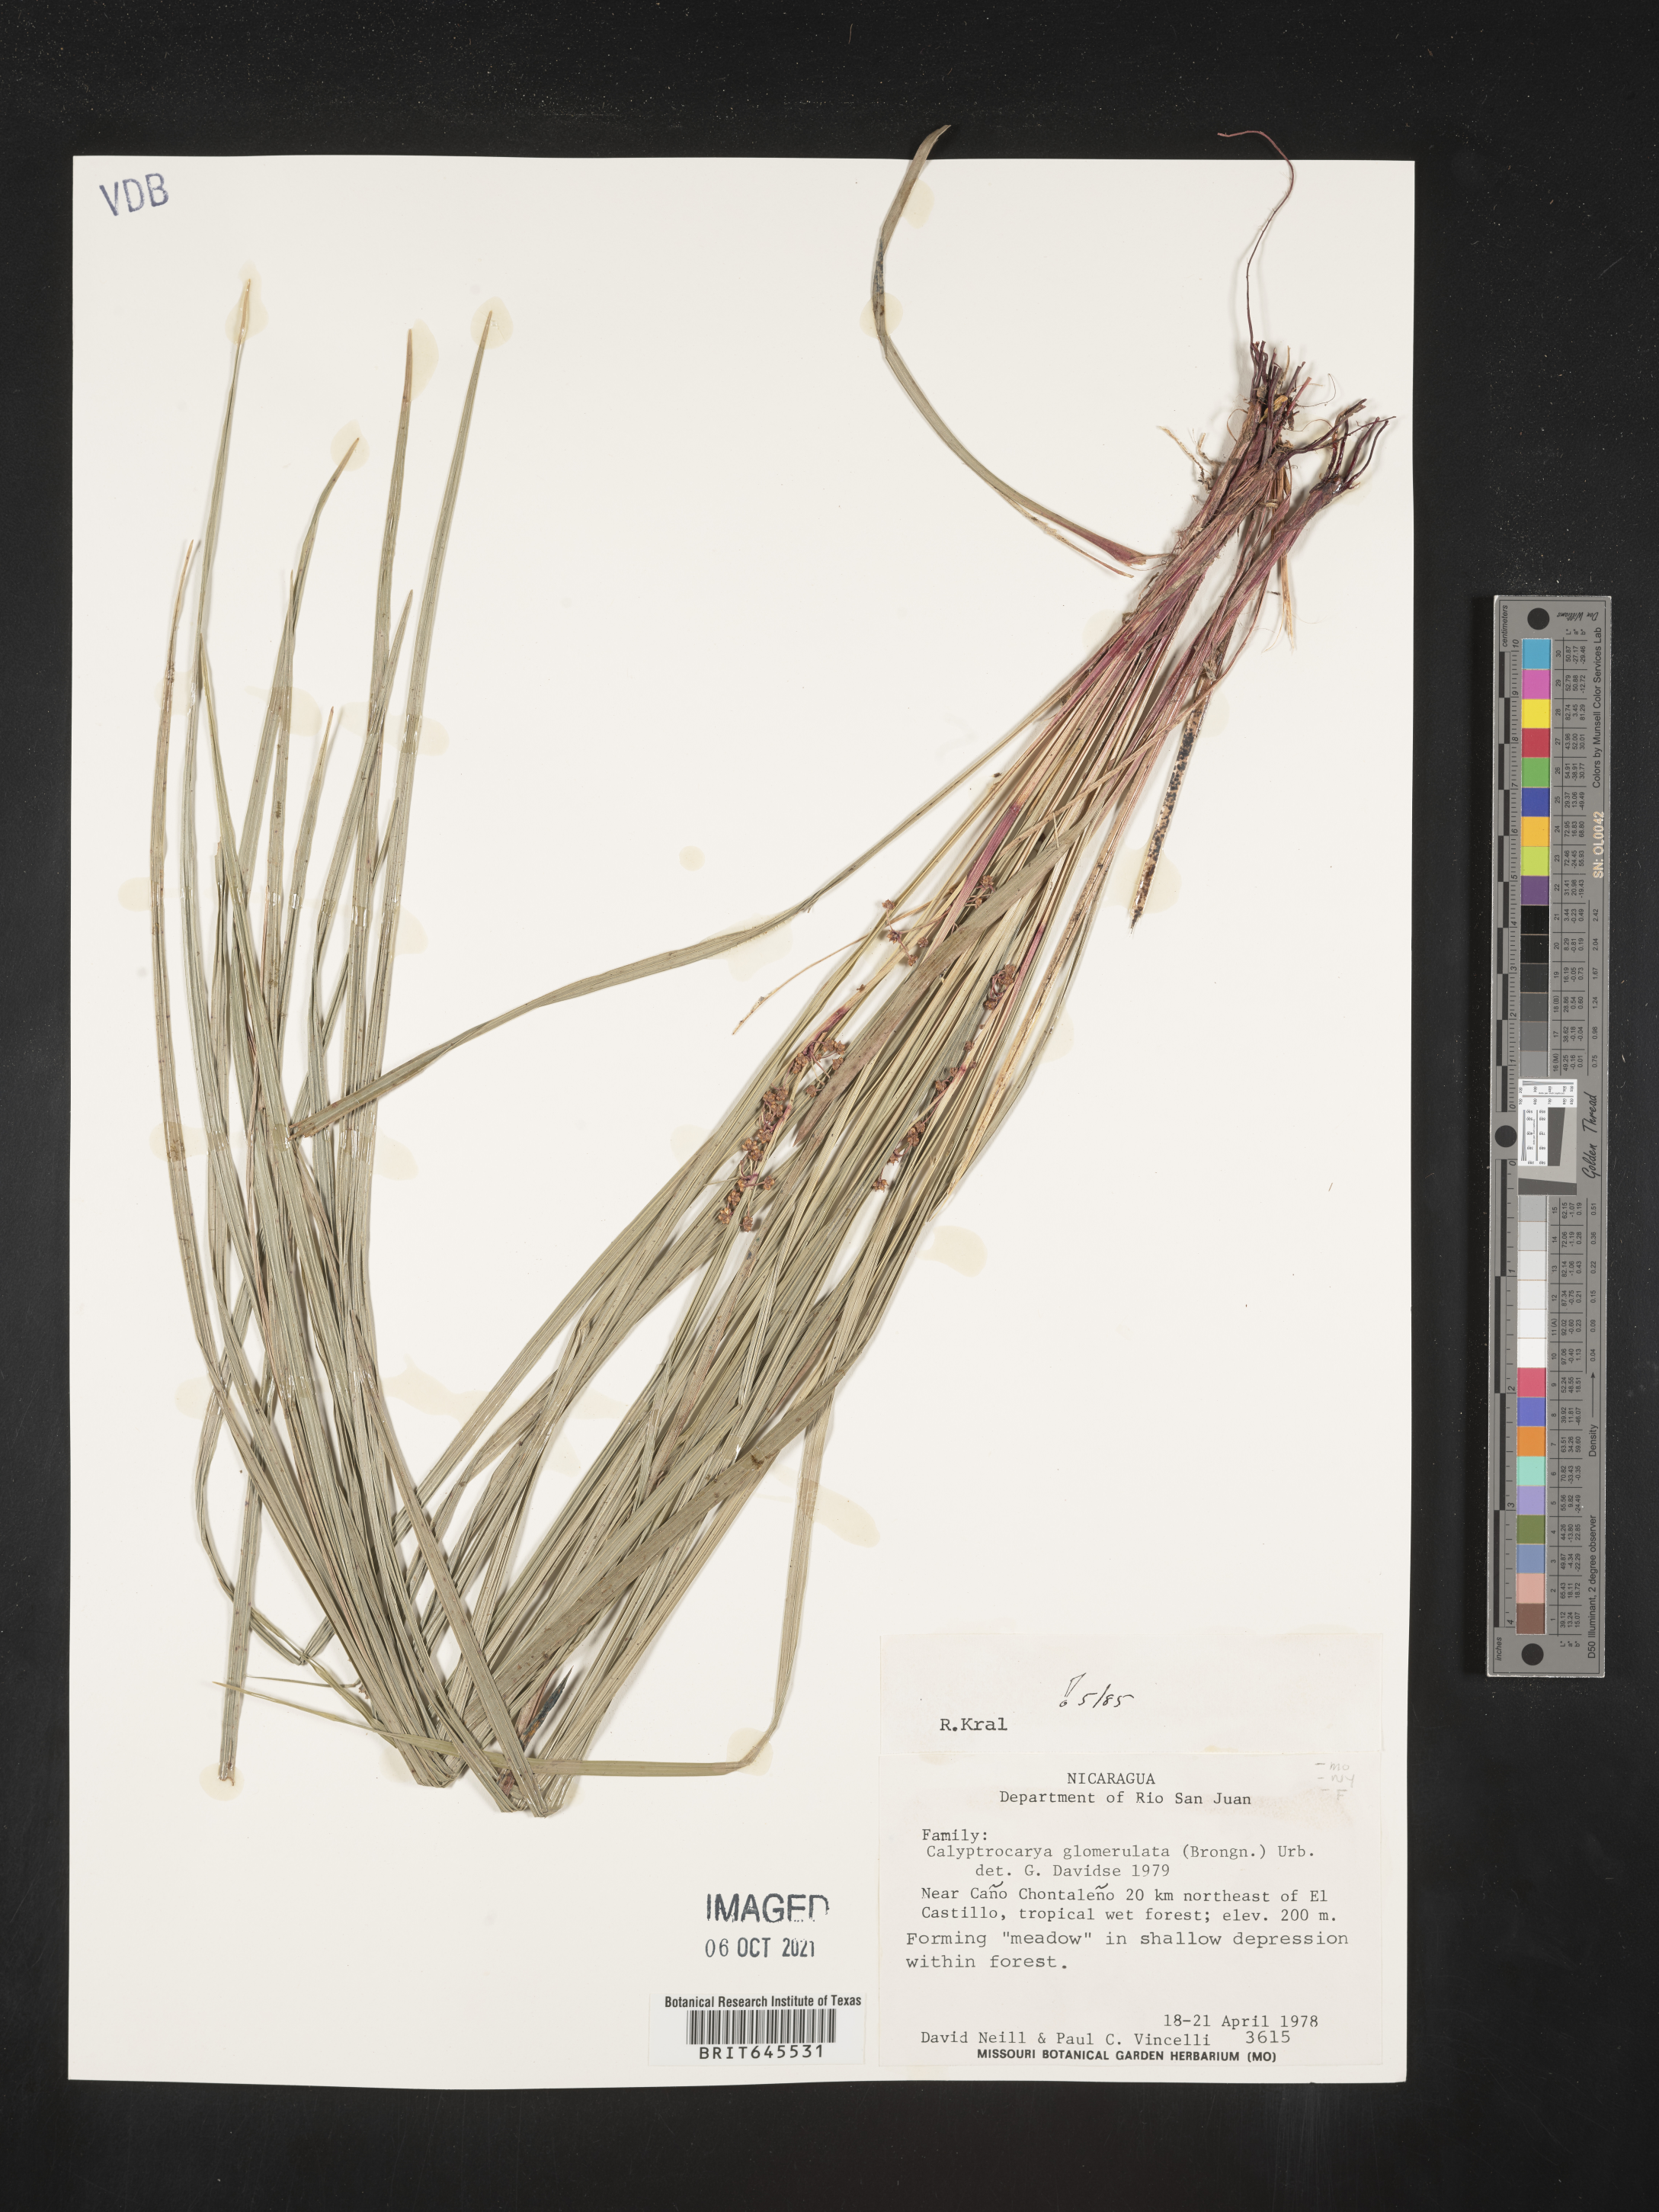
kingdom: Plantae
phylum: Tracheophyta
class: Liliopsida
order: Poales
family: Cyperaceae
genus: Calyptrocarya
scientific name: Calyptrocarya glomerulata
